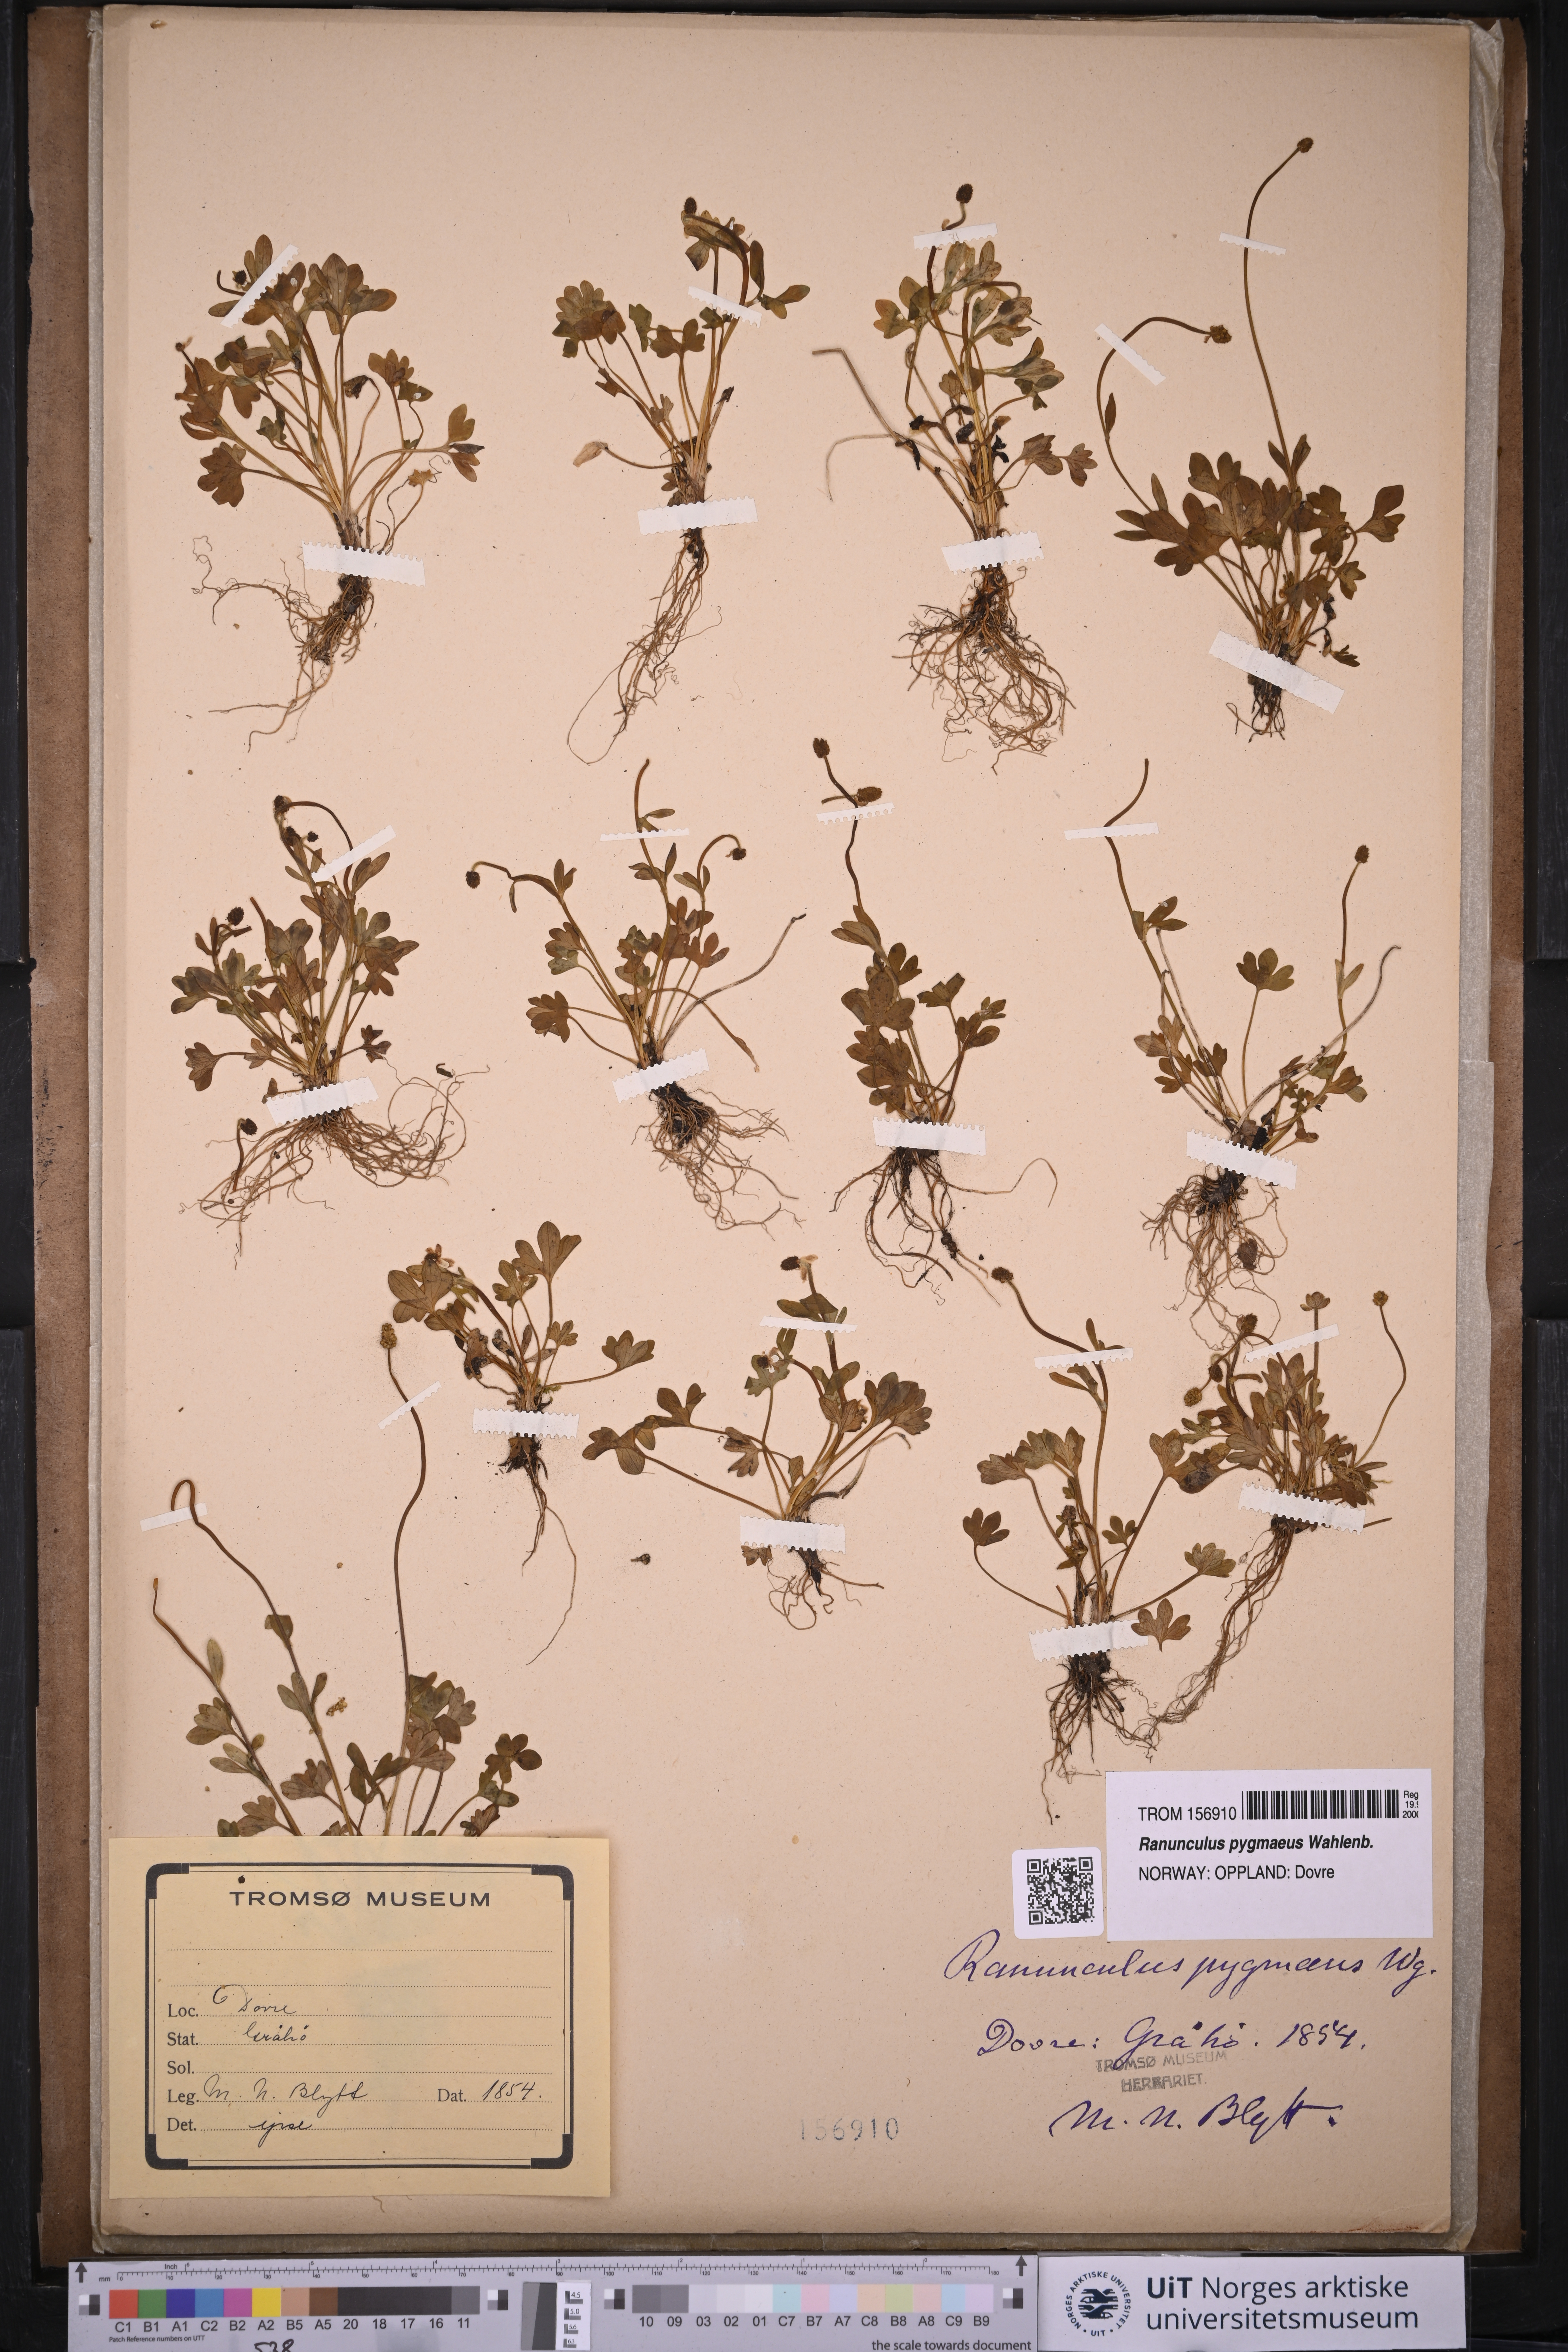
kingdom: Plantae
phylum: Tracheophyta
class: Magnoliopsida
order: Ranunculales
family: Ranunculaceae
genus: Ranunculus
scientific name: Ranunculus pygmaeus
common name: Dwarf buttercup
